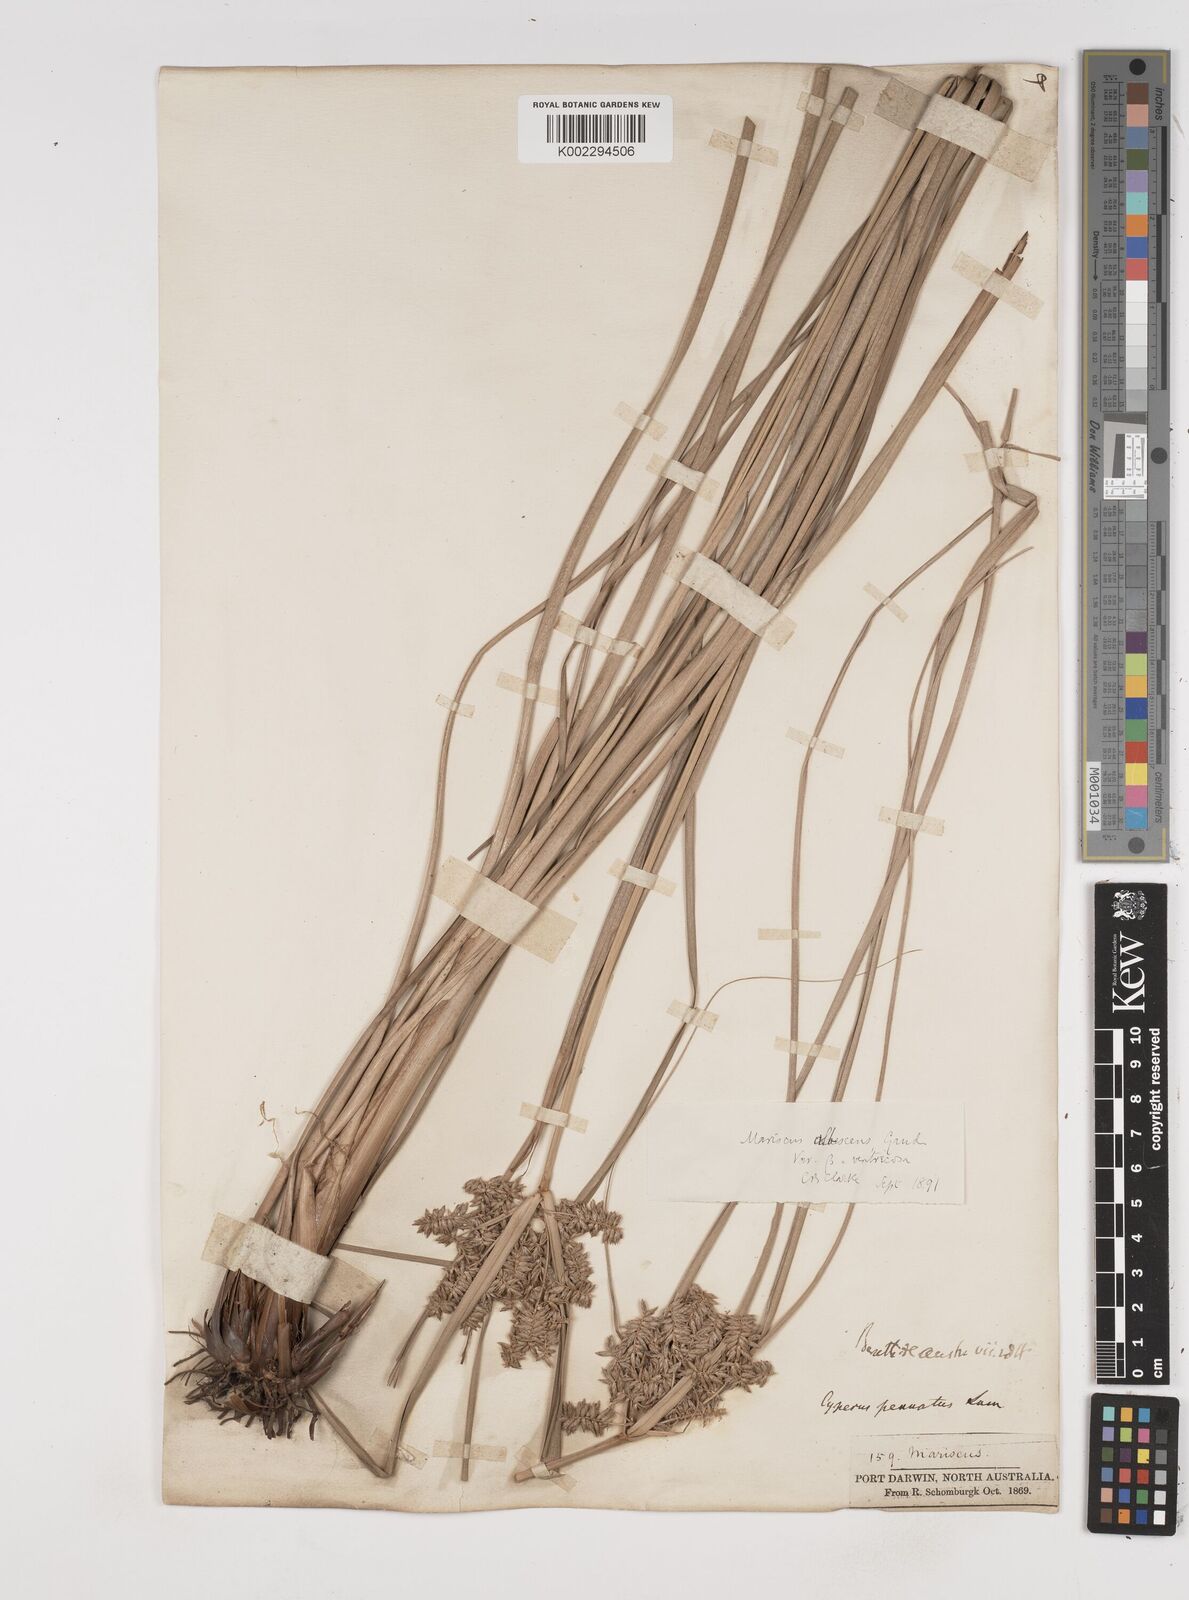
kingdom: Plantae
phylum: Tracheophyta
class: Liliopsida
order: Poales
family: Cyperaceae
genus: Cyperus
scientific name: Cyperus javanicus
